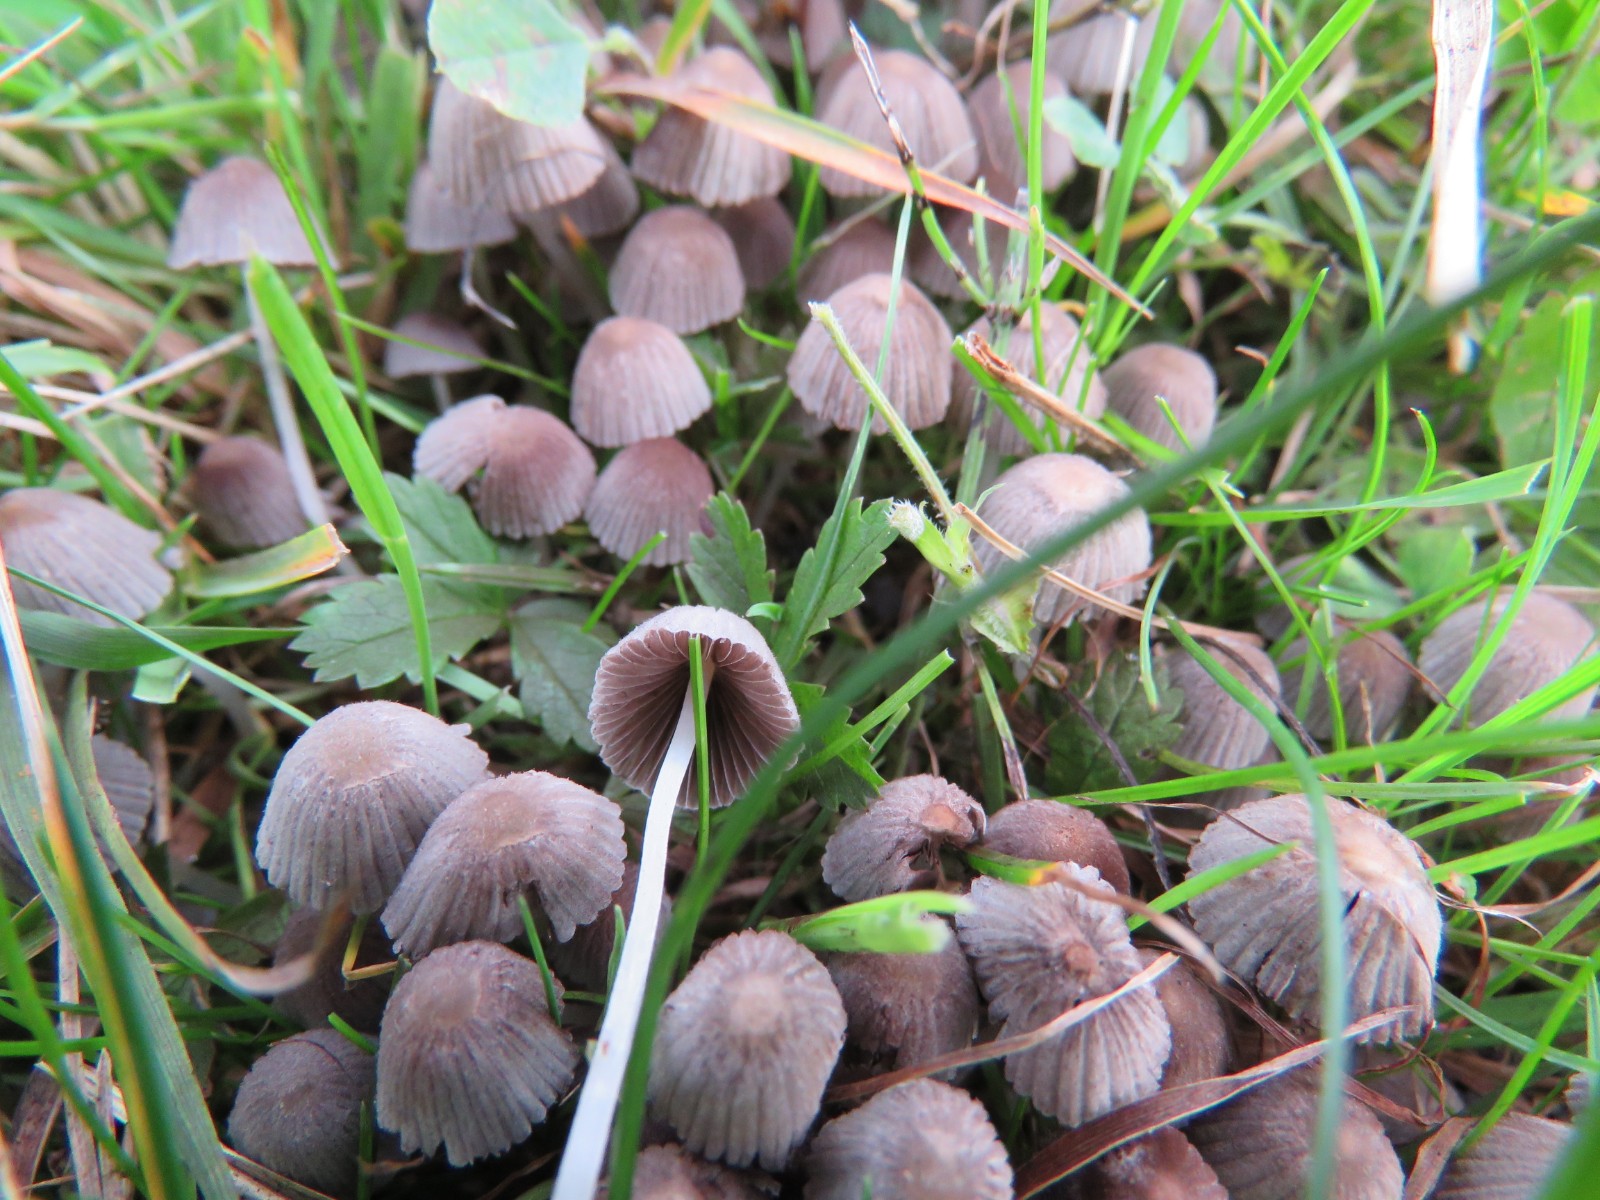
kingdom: Fungi
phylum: Basidiomycota
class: Agaricomycetes
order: Agaricales
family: Psathyrellaceae
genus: Coprinellus
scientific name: Coprinellus disseminatus
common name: bredsået blækhat
